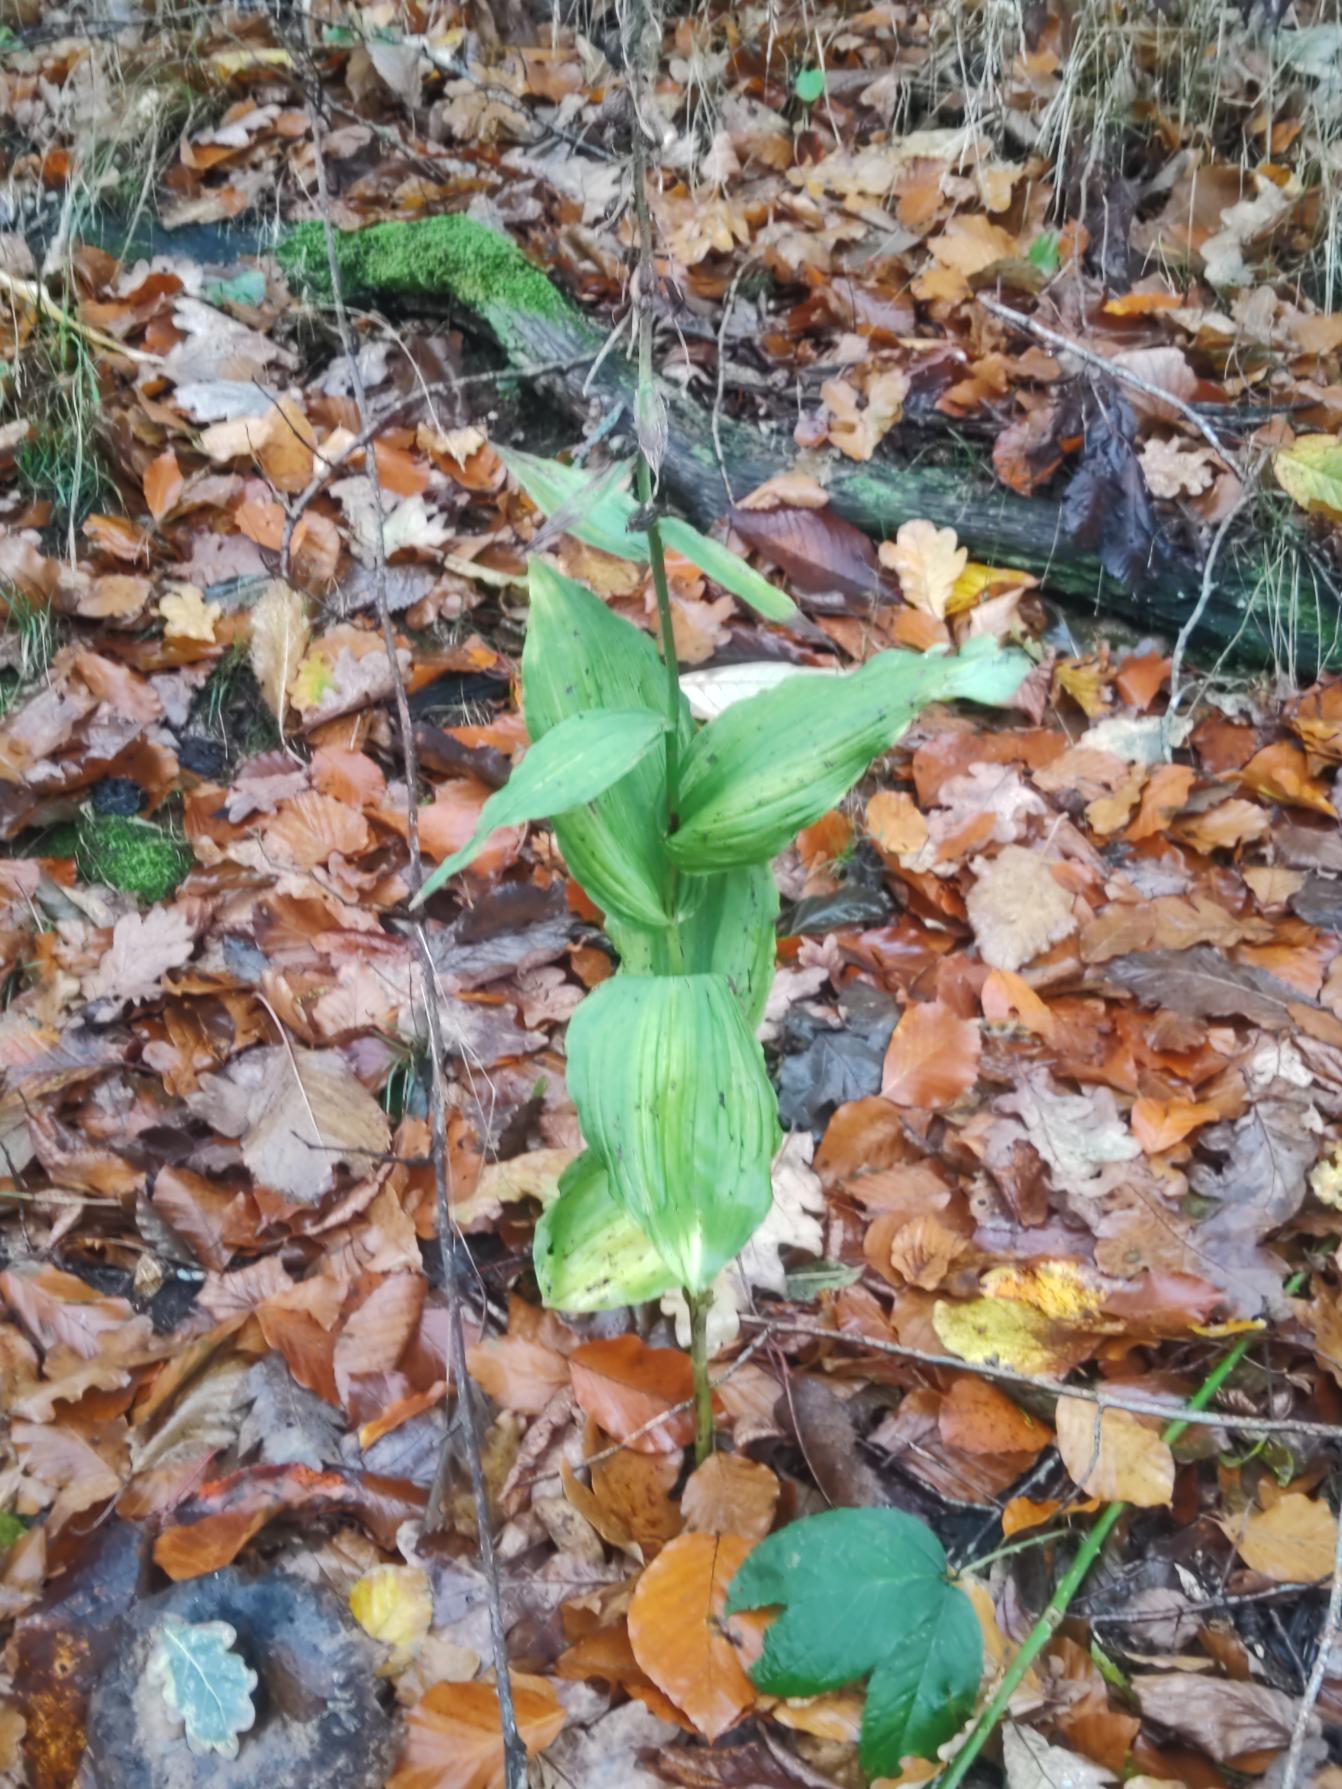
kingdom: Plantae
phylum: Tracheophyta
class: Liliopsida
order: Asparagales
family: Orchidaceae
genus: Epipactis
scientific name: Epipactis helleborine
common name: Skov-hullæbe
